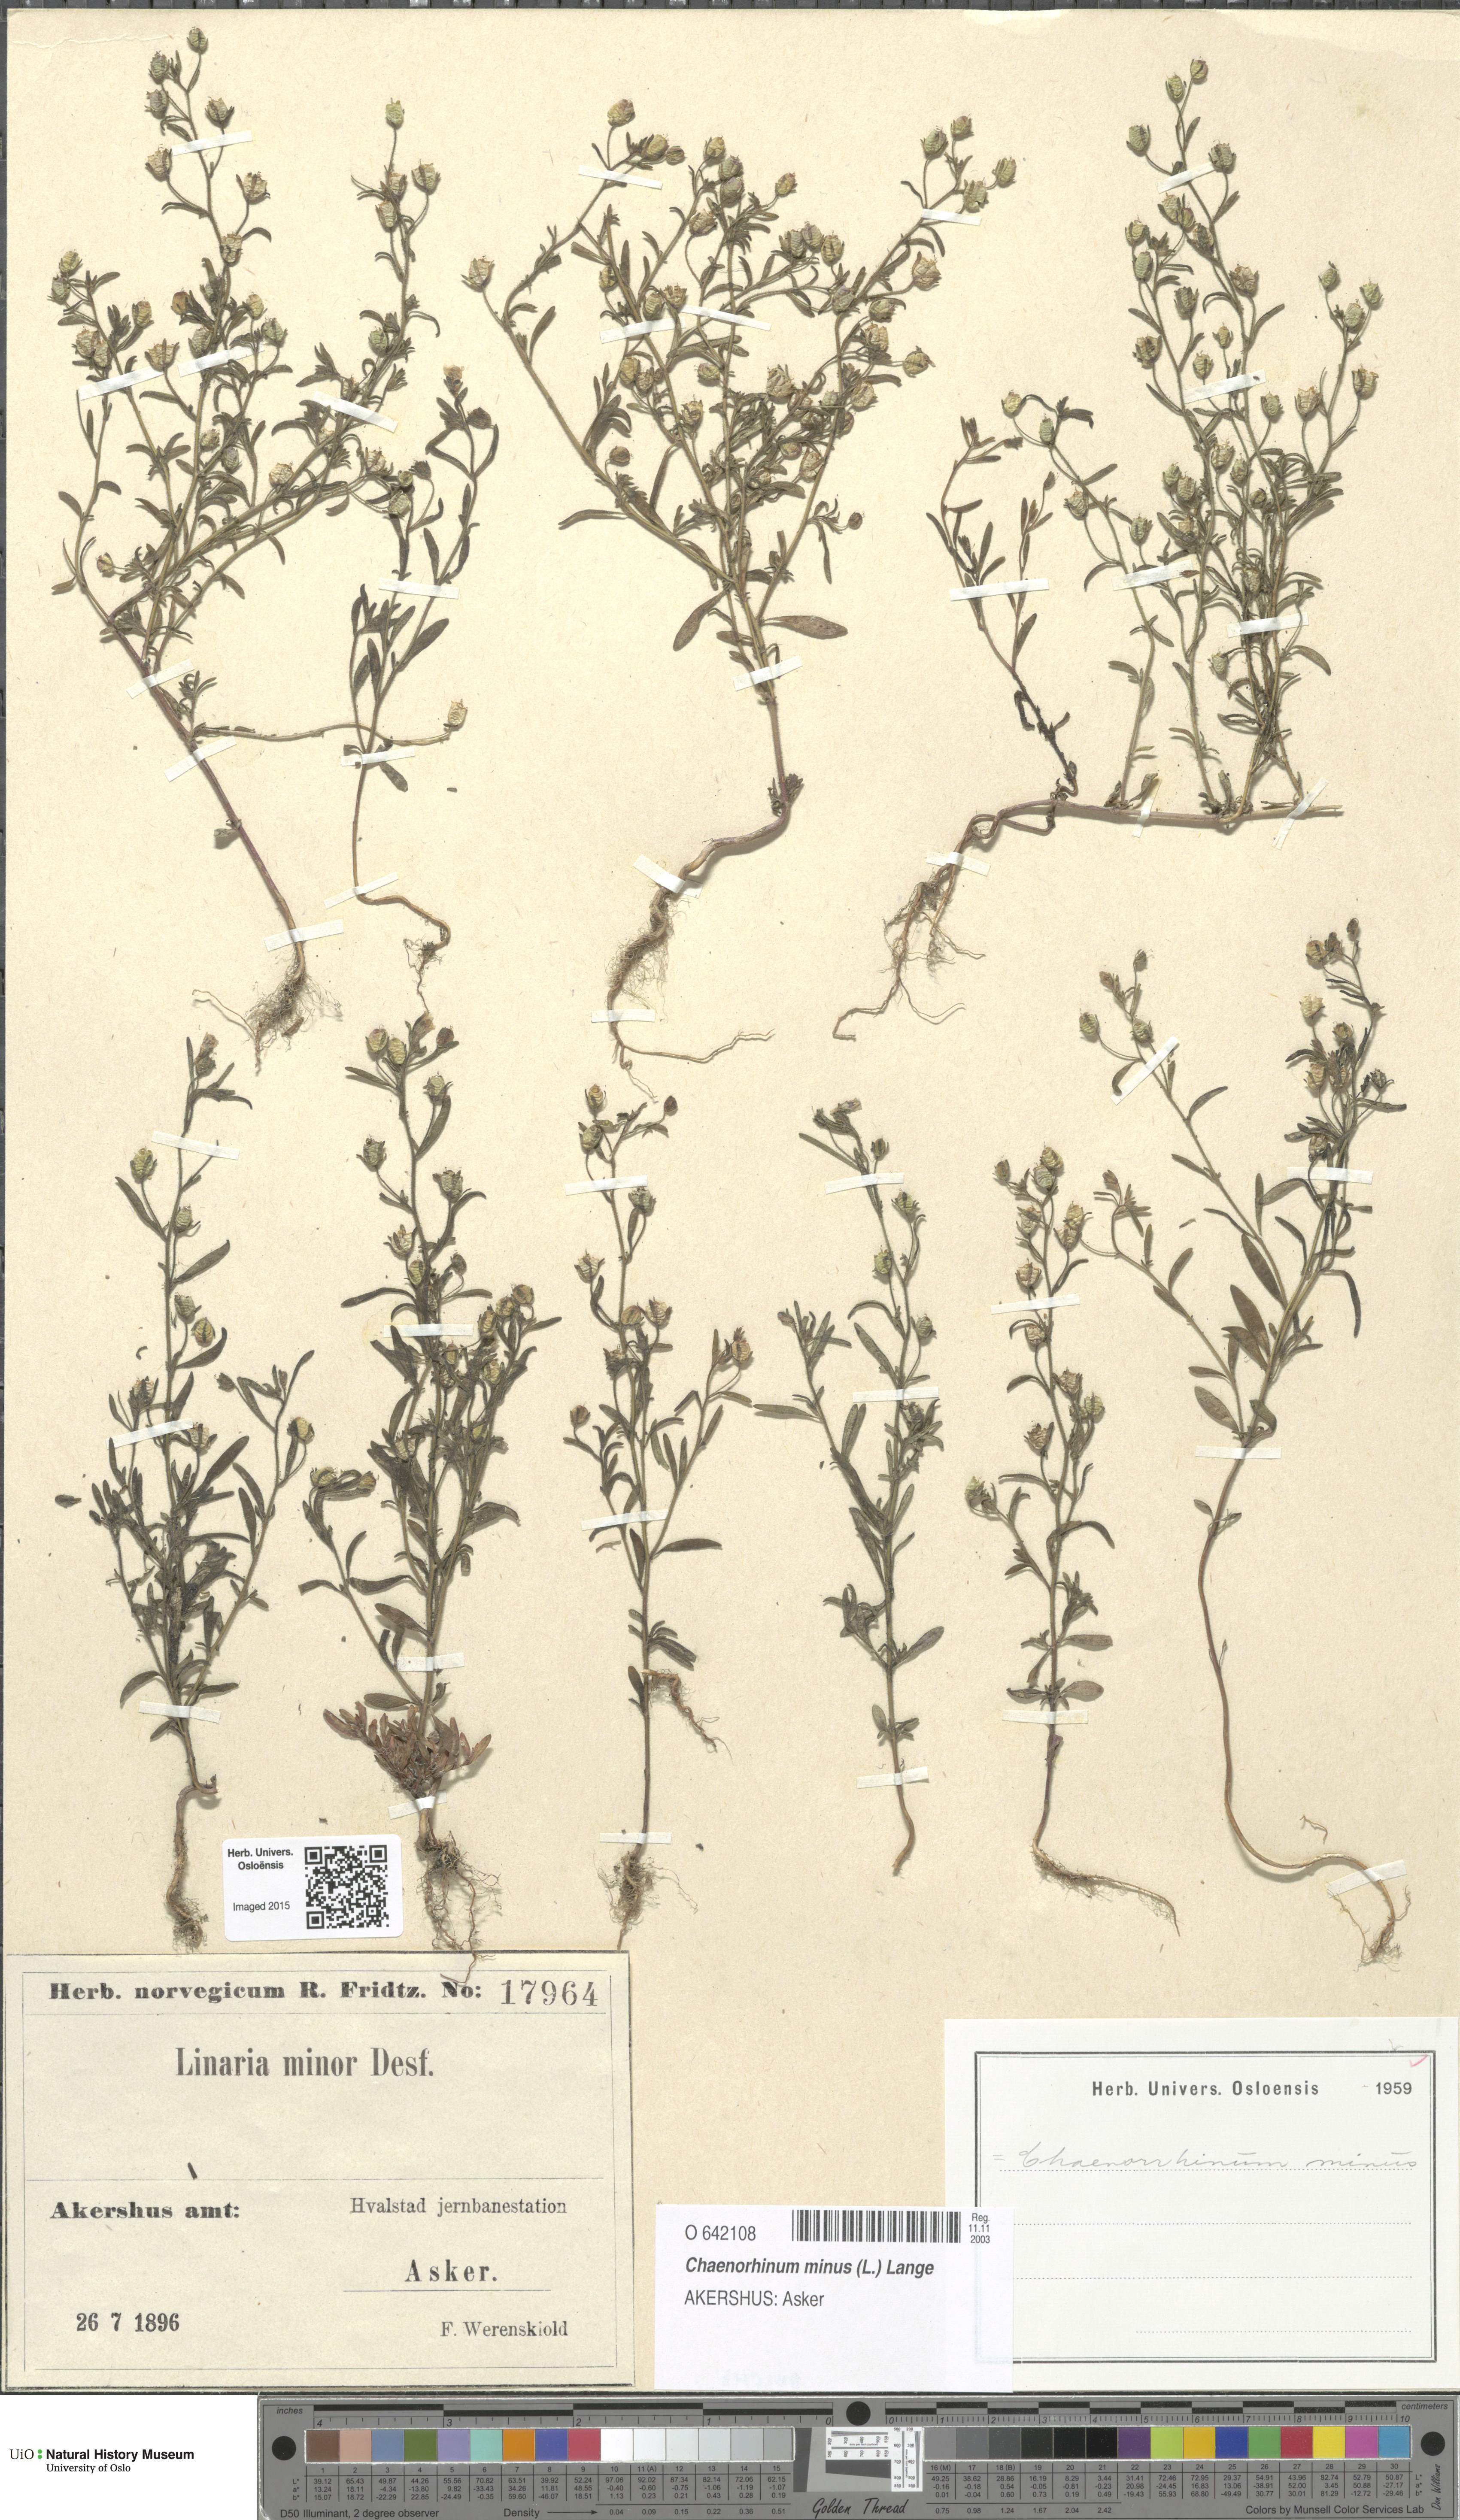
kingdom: Plantae
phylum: Tracheophyta
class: Magnoliopsida
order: Lamiales
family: Plantaginaceae
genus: Chaenorhinum
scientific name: Chaenorhinum minus
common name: Dwarf snapdragon
